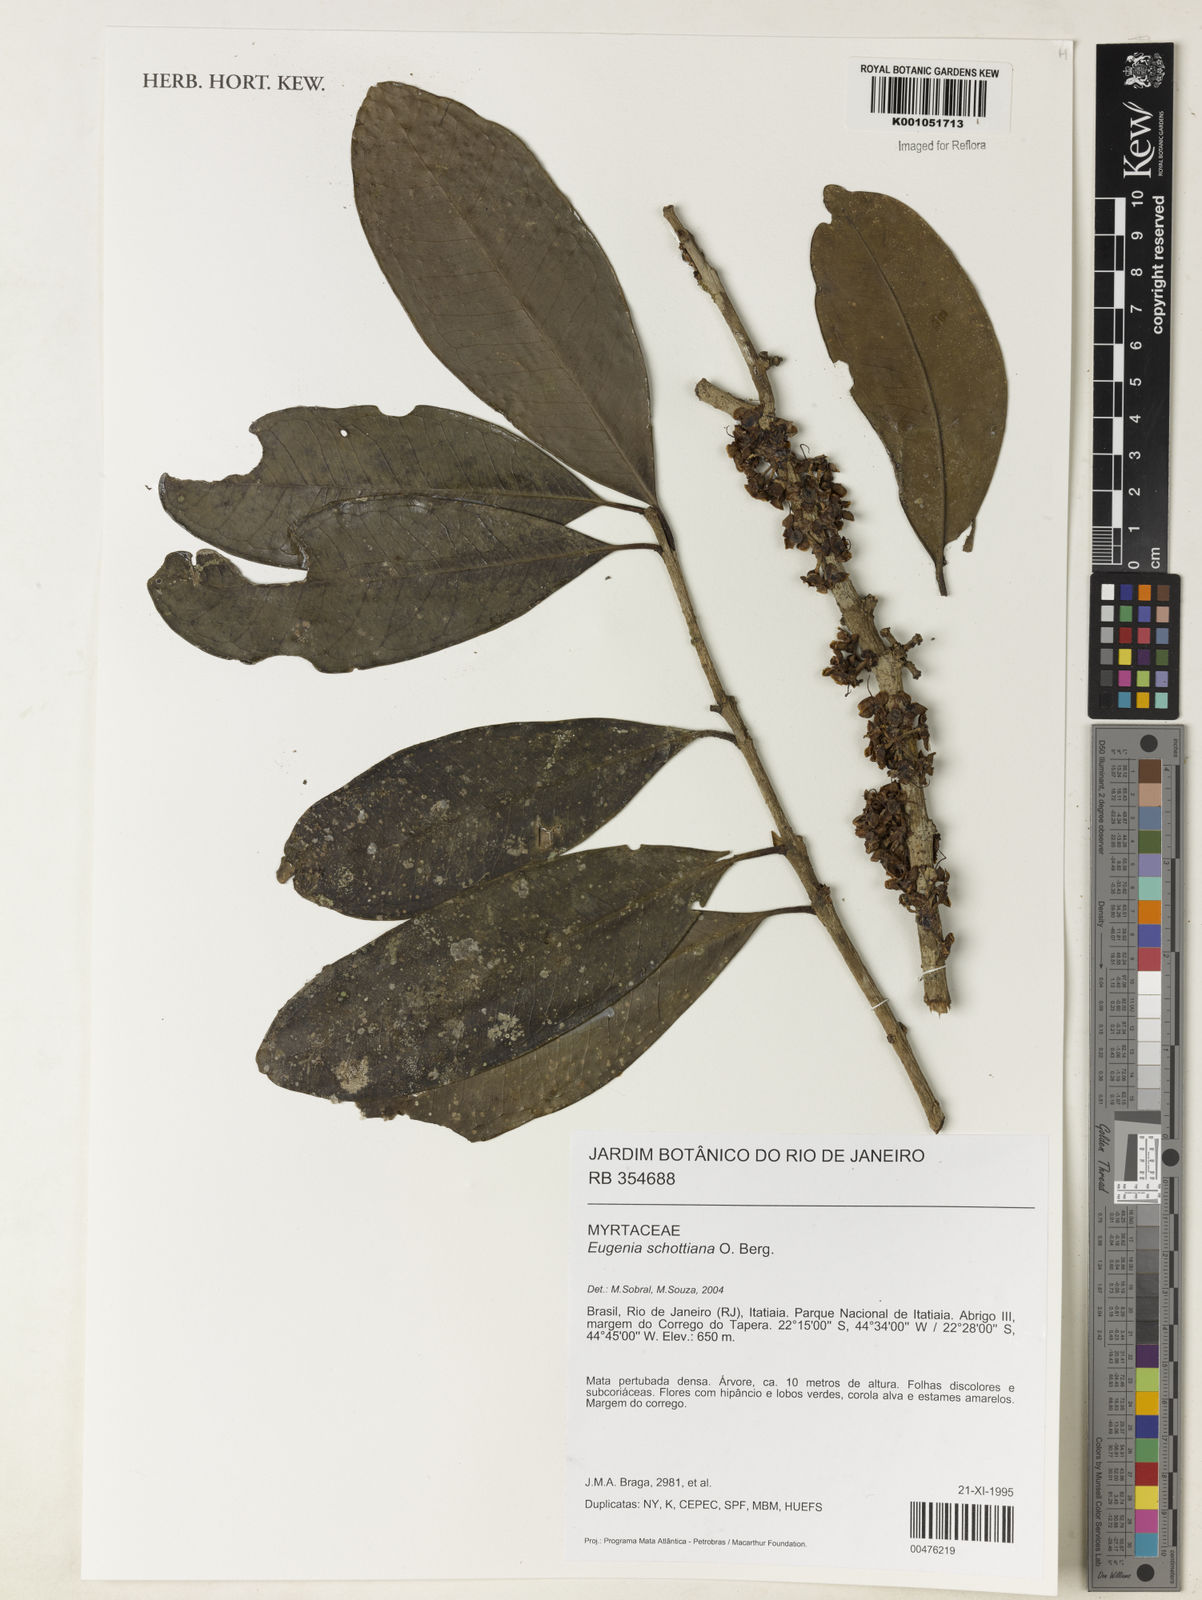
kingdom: Plantae
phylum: Tracheophyta
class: Magnoliopsida
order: Myrtales
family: Myrtaceae
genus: Eugenia
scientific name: Eugenia schottiana
